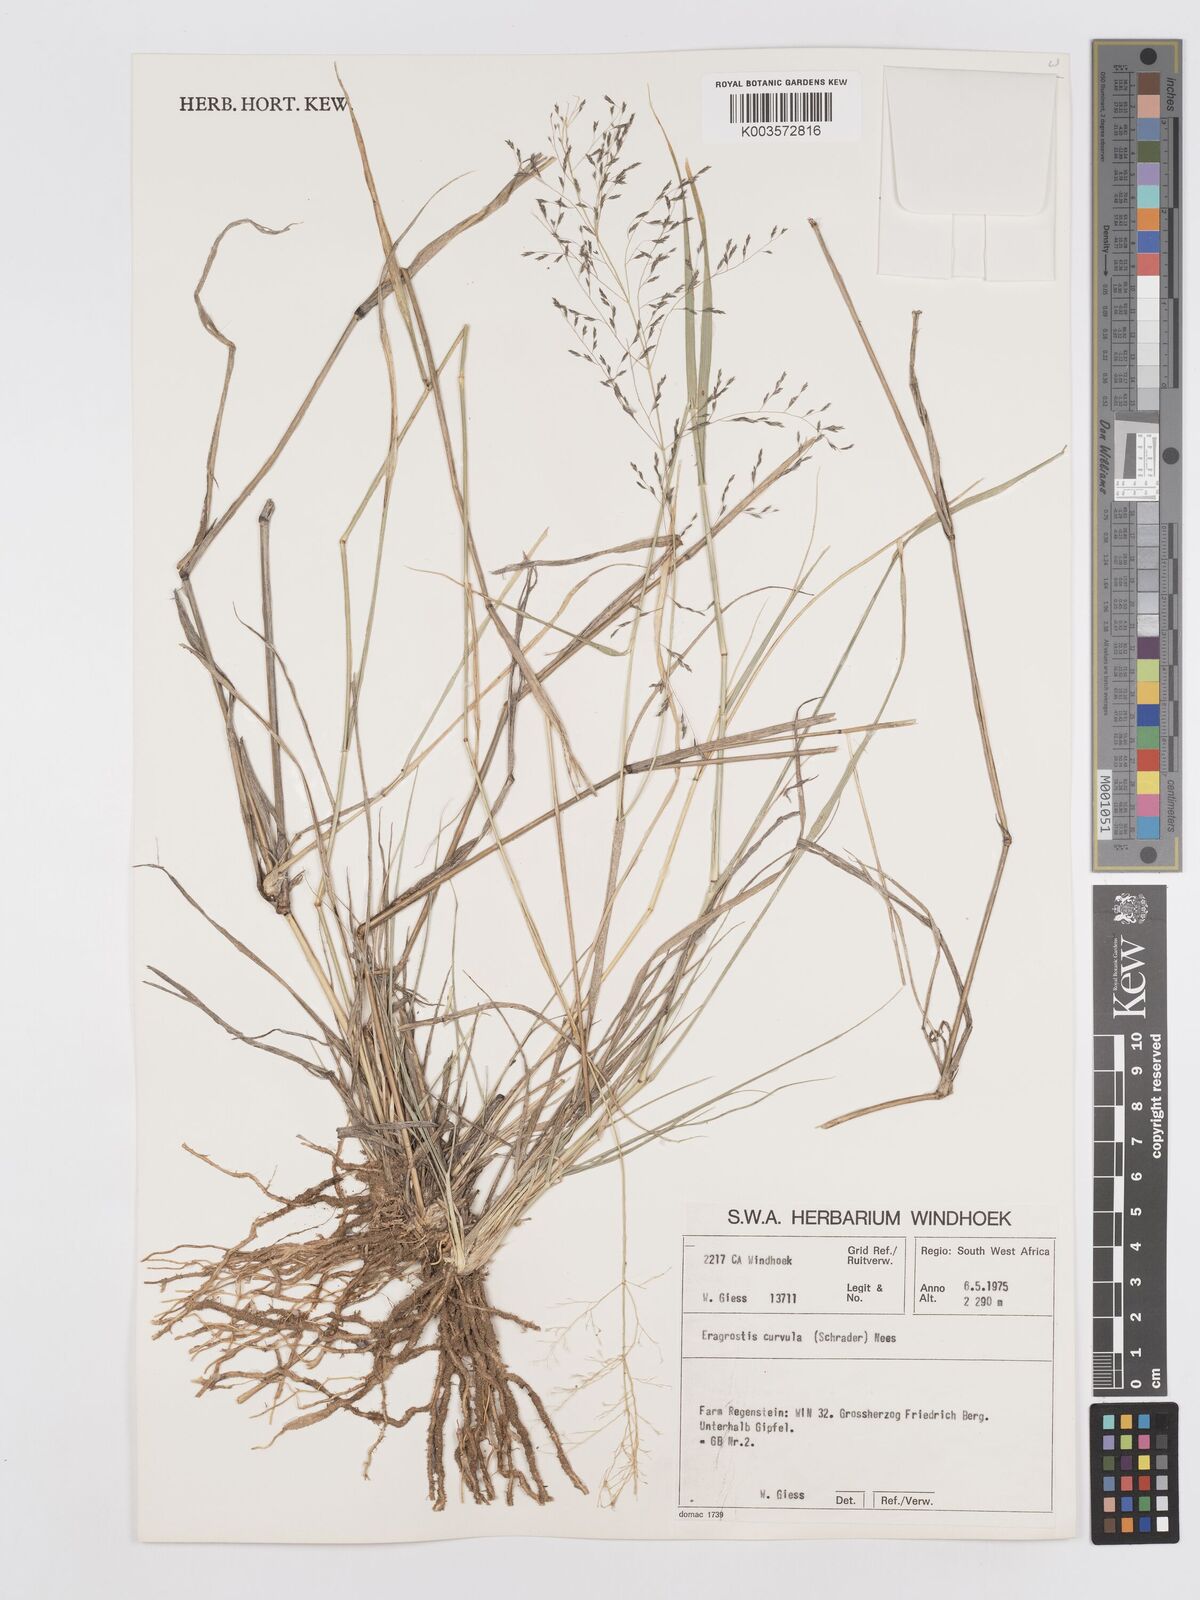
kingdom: Plantae
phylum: Tracheophyta
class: Liliopsida
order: Poales
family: Poaceae
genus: Eragrostis
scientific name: Eragrostis curvula
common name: African love-grass
